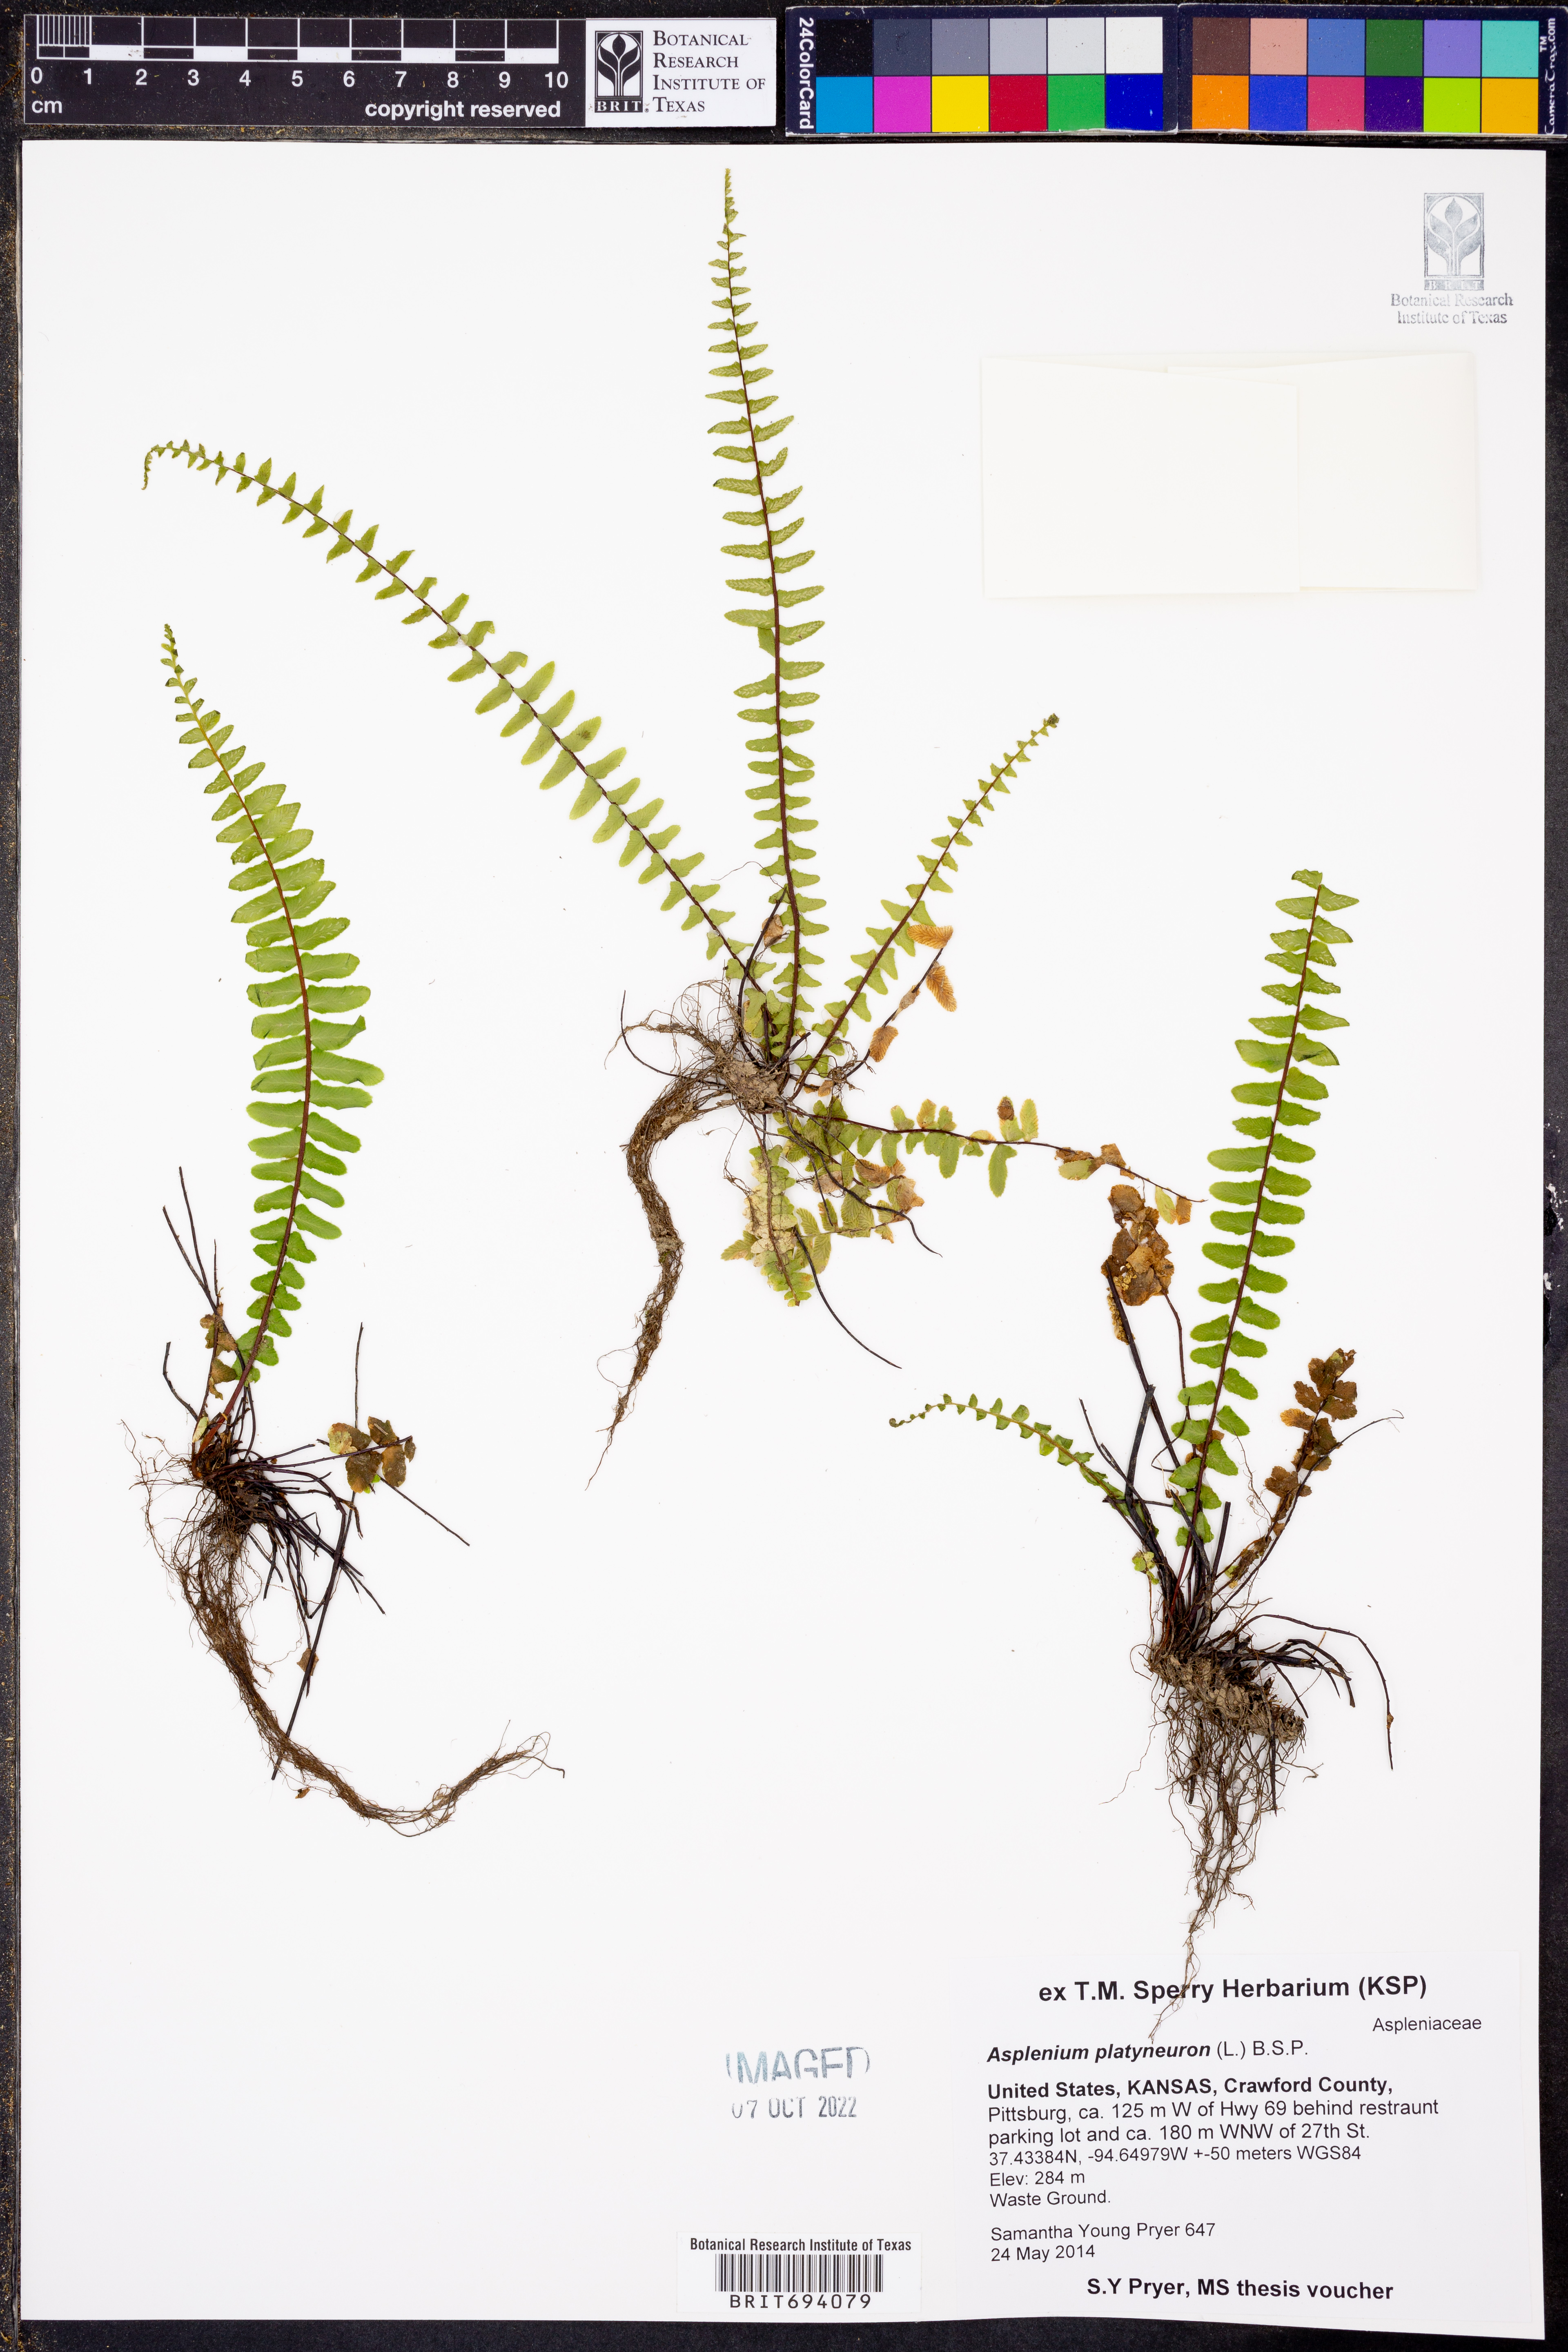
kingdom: Plantae
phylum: Tracheophyta
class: Polypodiopsida
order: Polypodiales
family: Aspleniaceae
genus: Asplenium
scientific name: Asplenium platyneuron
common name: Ebony spleenwort
